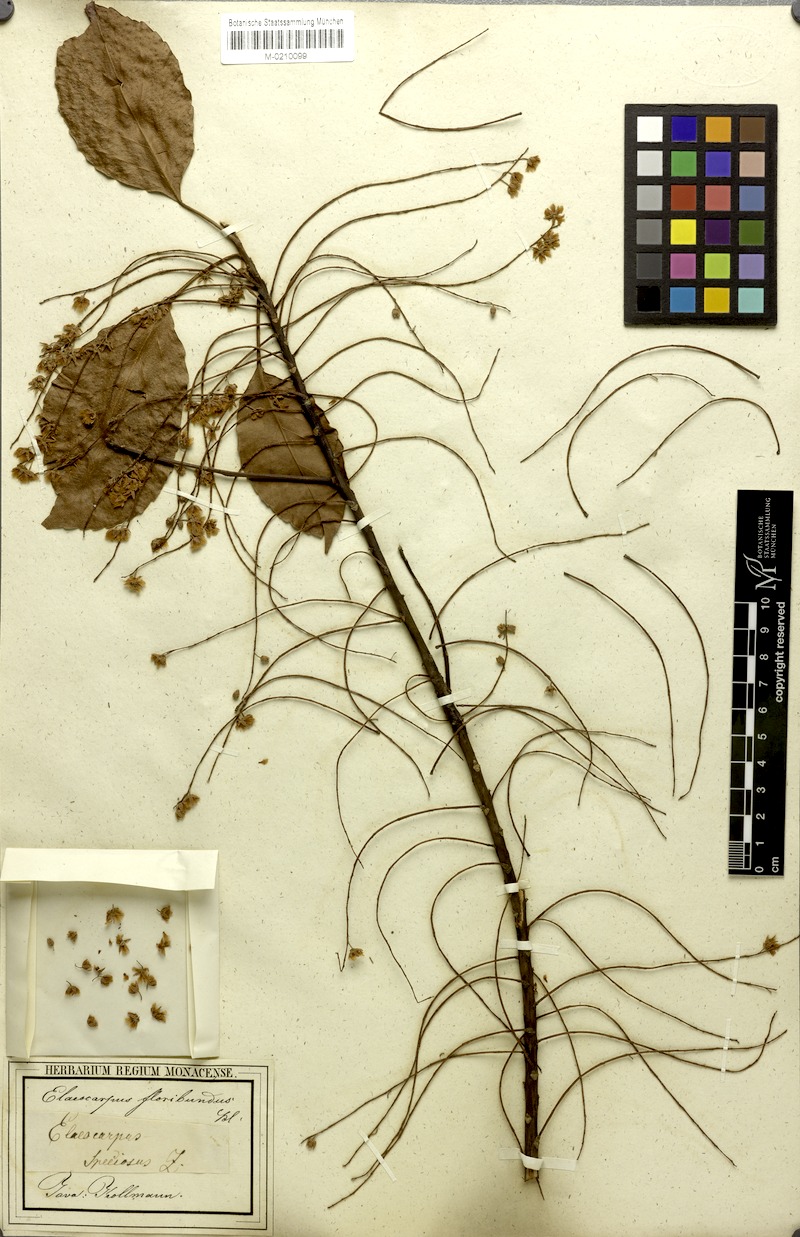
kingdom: Plantae
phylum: Tracheophyta
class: Magnoliopsida
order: Oxalidales
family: Elaeocarpaceae
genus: Elaeocarpus
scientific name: Elaeocarpus floribundus
